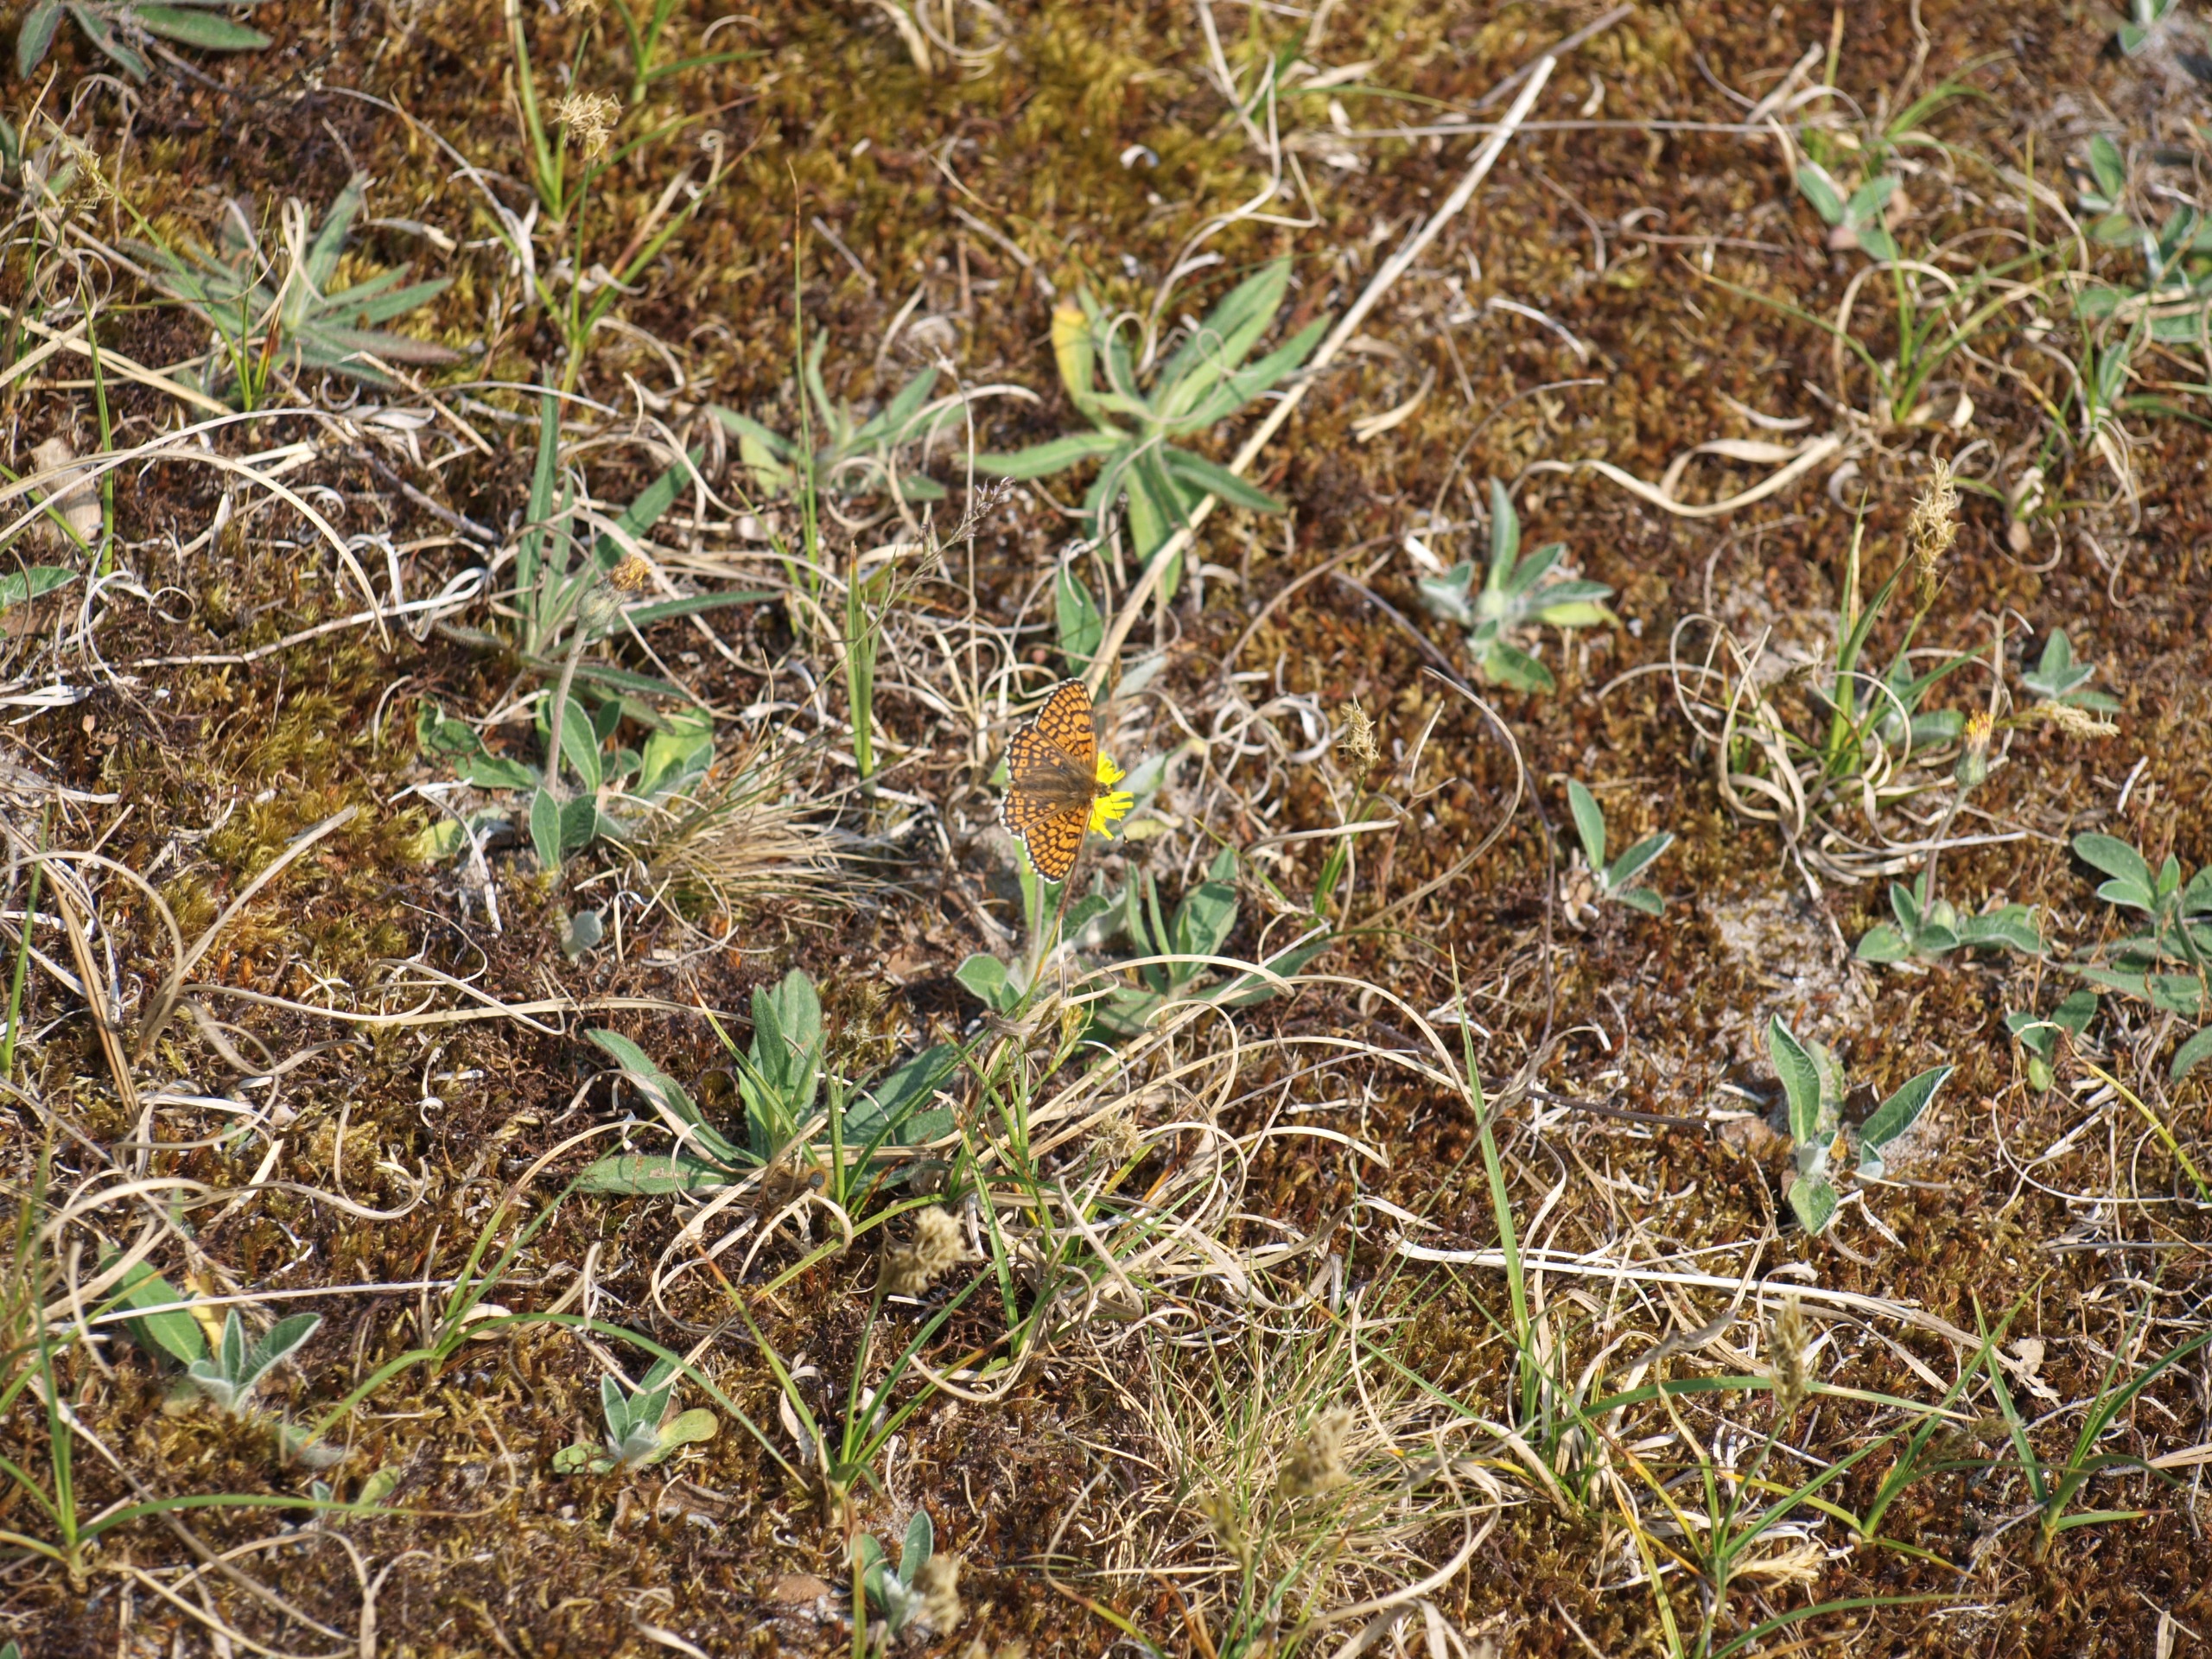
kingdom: Animalia
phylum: Arthropoda
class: Insecta
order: Lepidoptera
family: Nymphalidae
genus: Melitaea
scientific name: Melitaea cinxia
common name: Okkergul pletvinge
